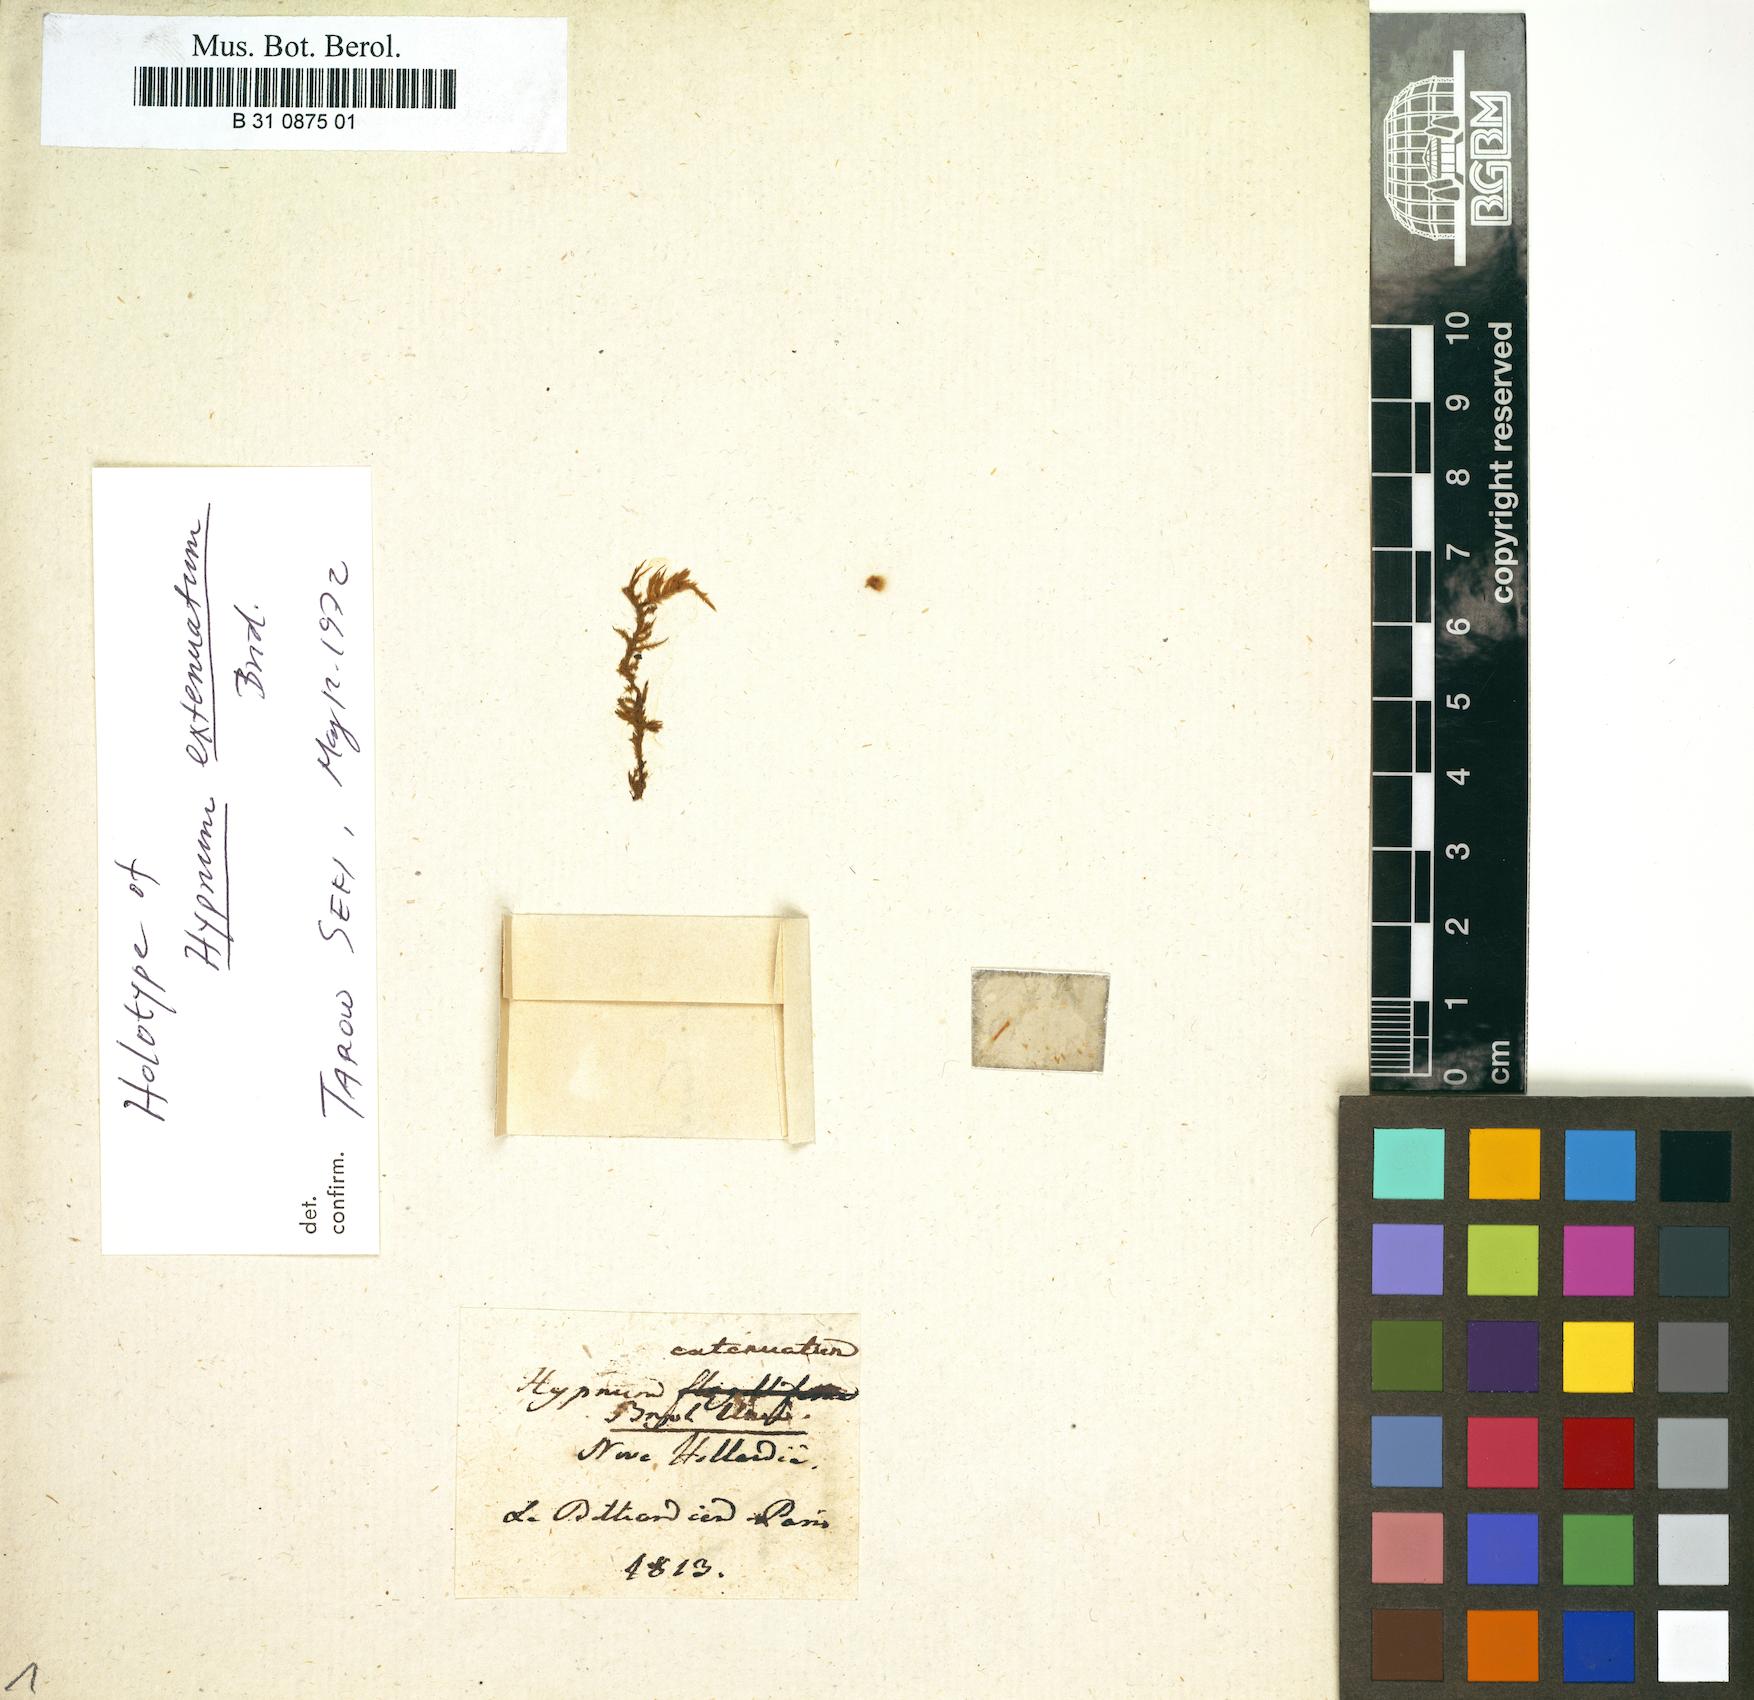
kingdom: Plantae
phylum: Bryophyta
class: Bryopsida
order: Hypnales
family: Pylaisiadelphaceae
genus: Wijkia
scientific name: Wijkia extenuata
